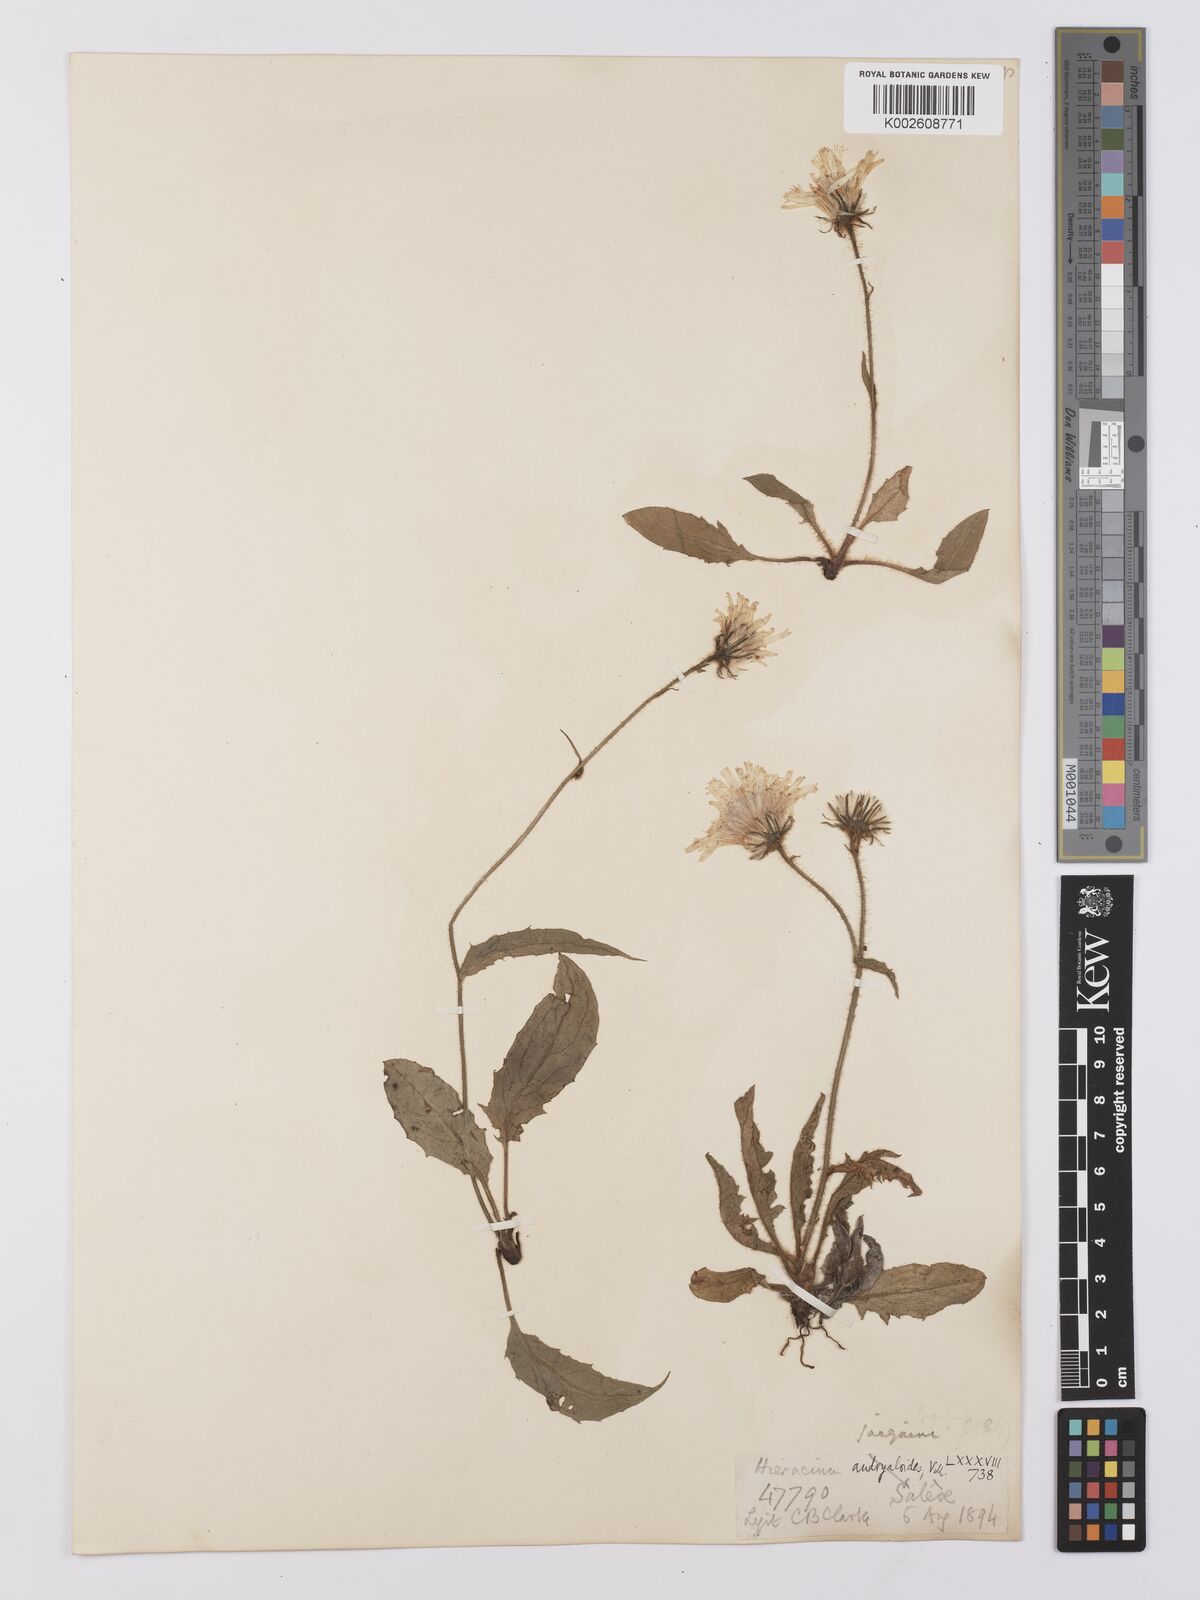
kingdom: Plantae
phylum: Tracheophyta
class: Magnoliopsida
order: Asterales
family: Asteraceae
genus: Hieracium
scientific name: Hieracium humile
